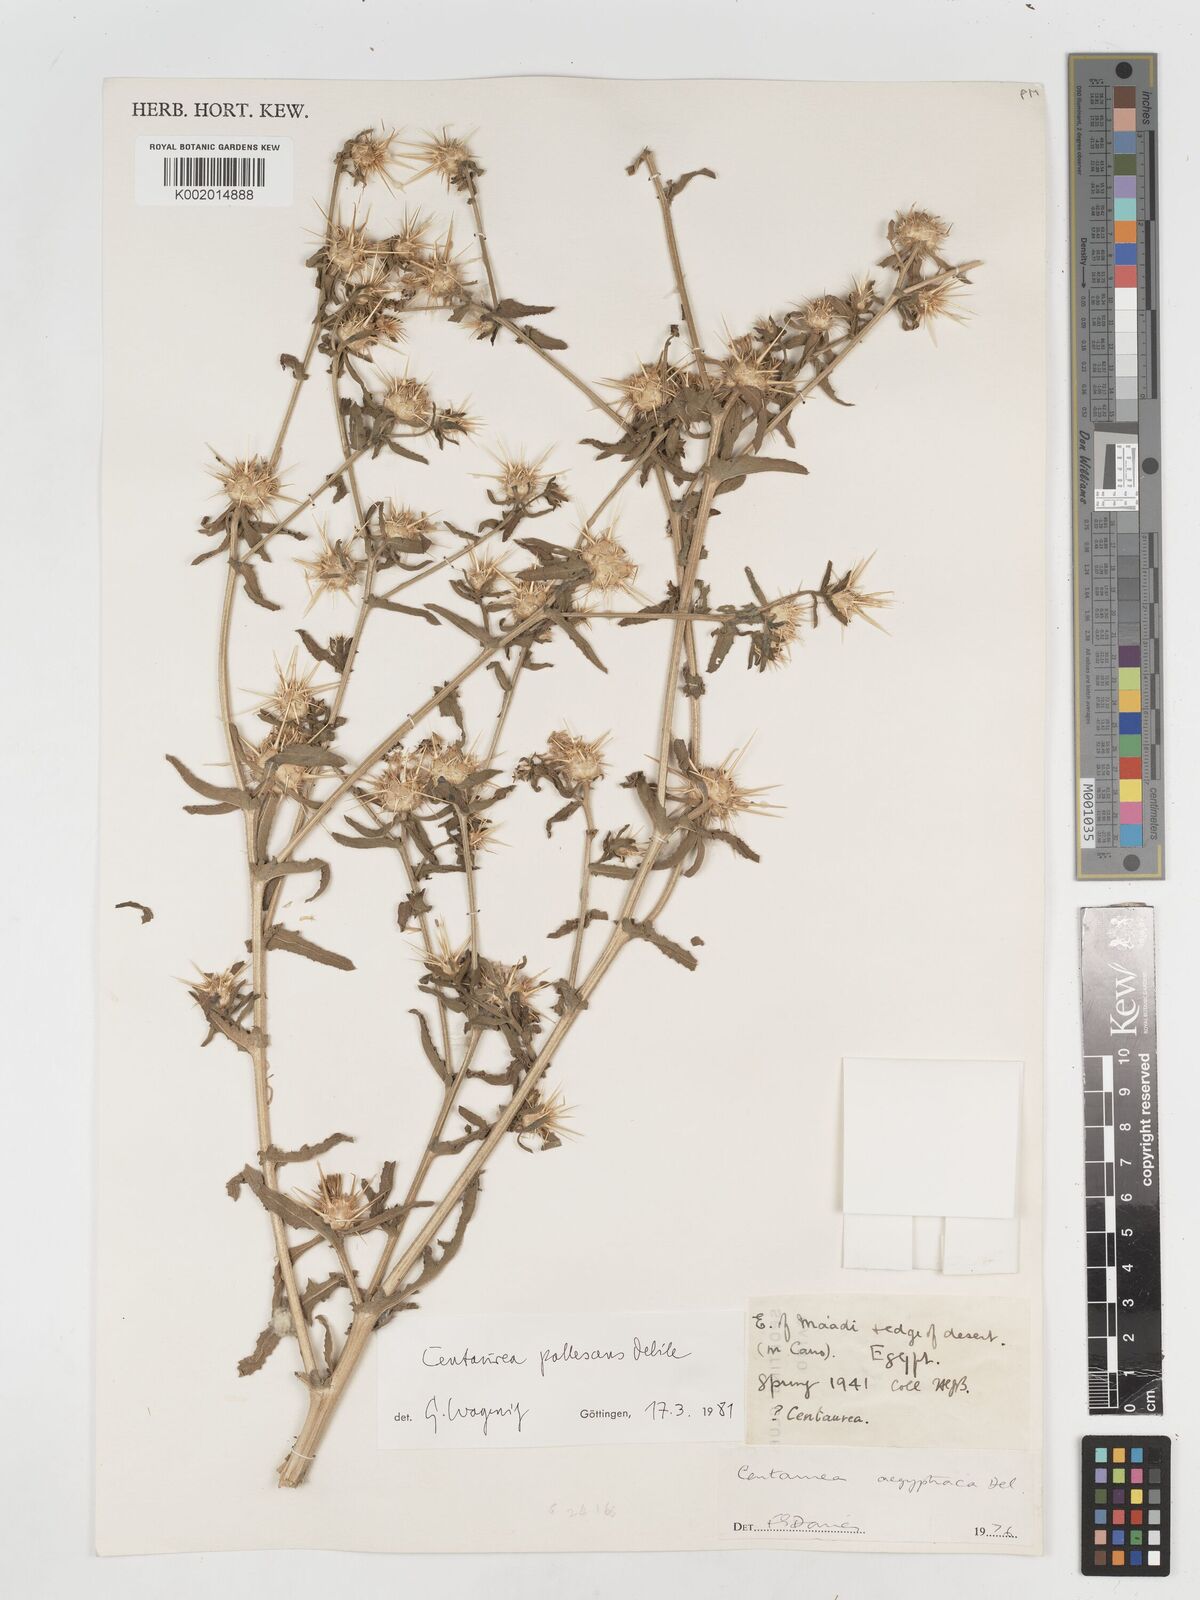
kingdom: Plantae
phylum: Tracheophyta
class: Magnoliopsida
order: Asterales
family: Asteraceae
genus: Centaurea
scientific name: Centaurea pallescens
